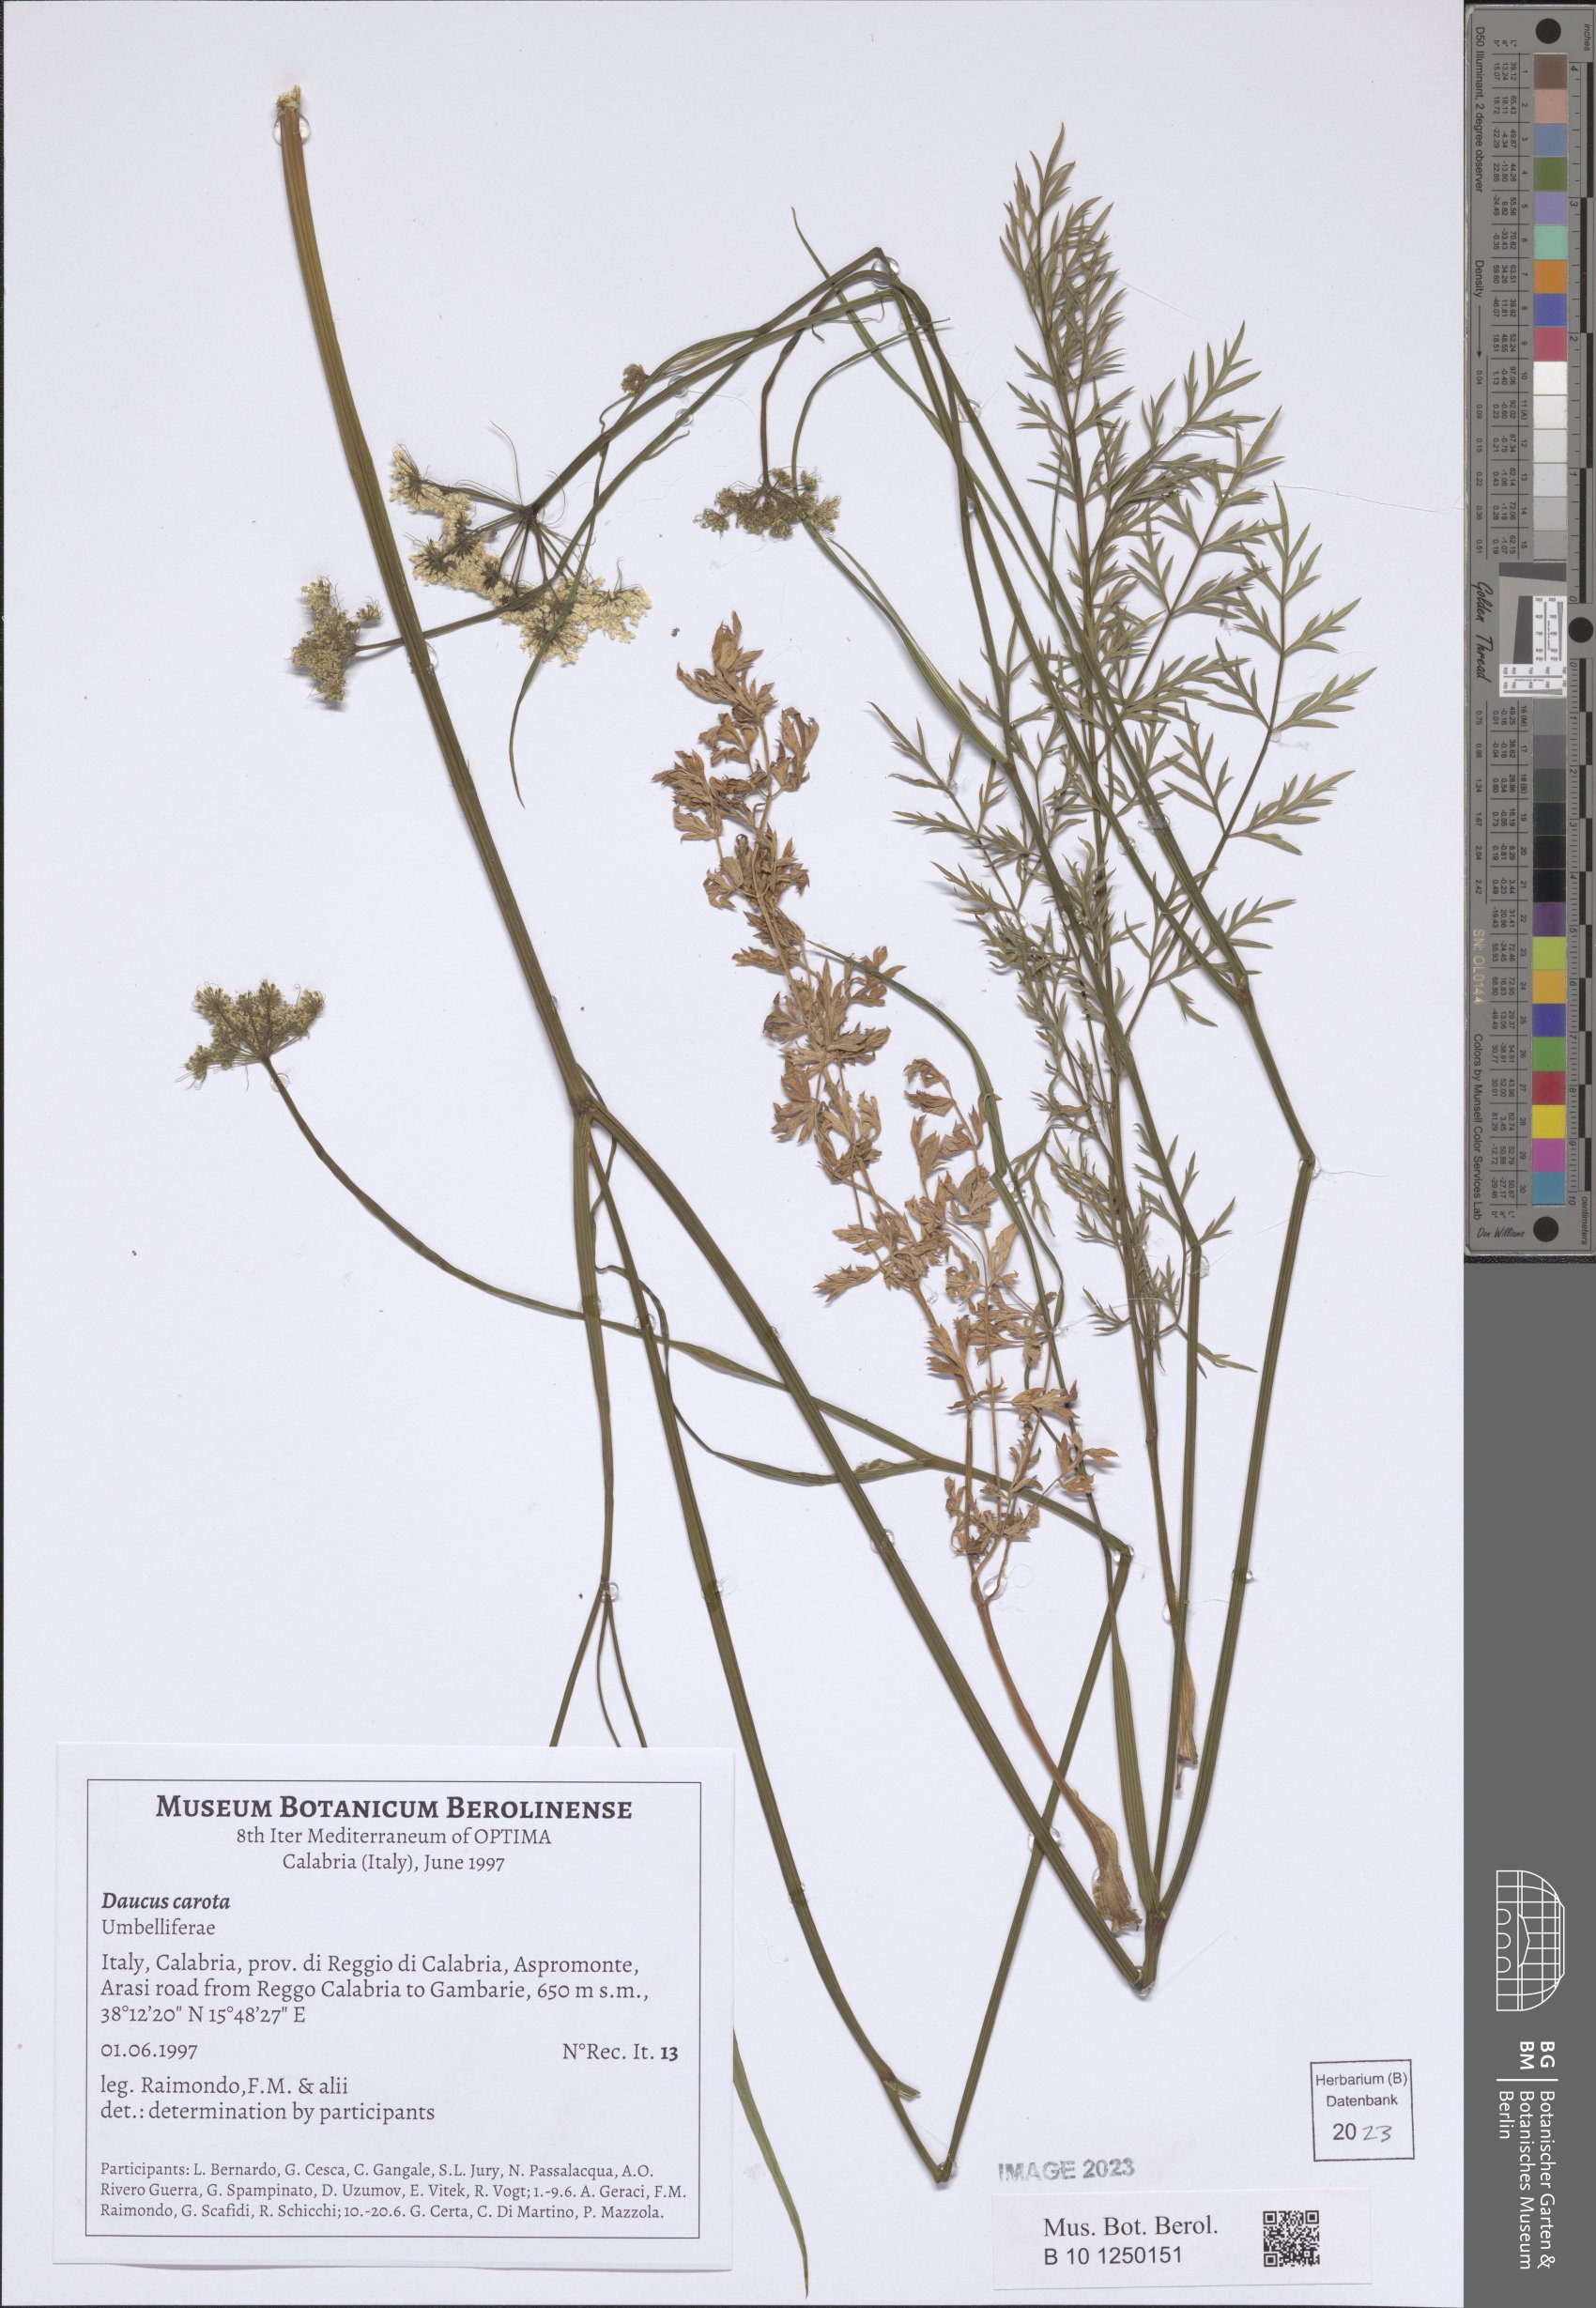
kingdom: Plantae
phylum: Tracheophyta
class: Magnoliopsida
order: Apiales
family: Apiaceae
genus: Daucus
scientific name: Daucus carota
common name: Wild carrot
